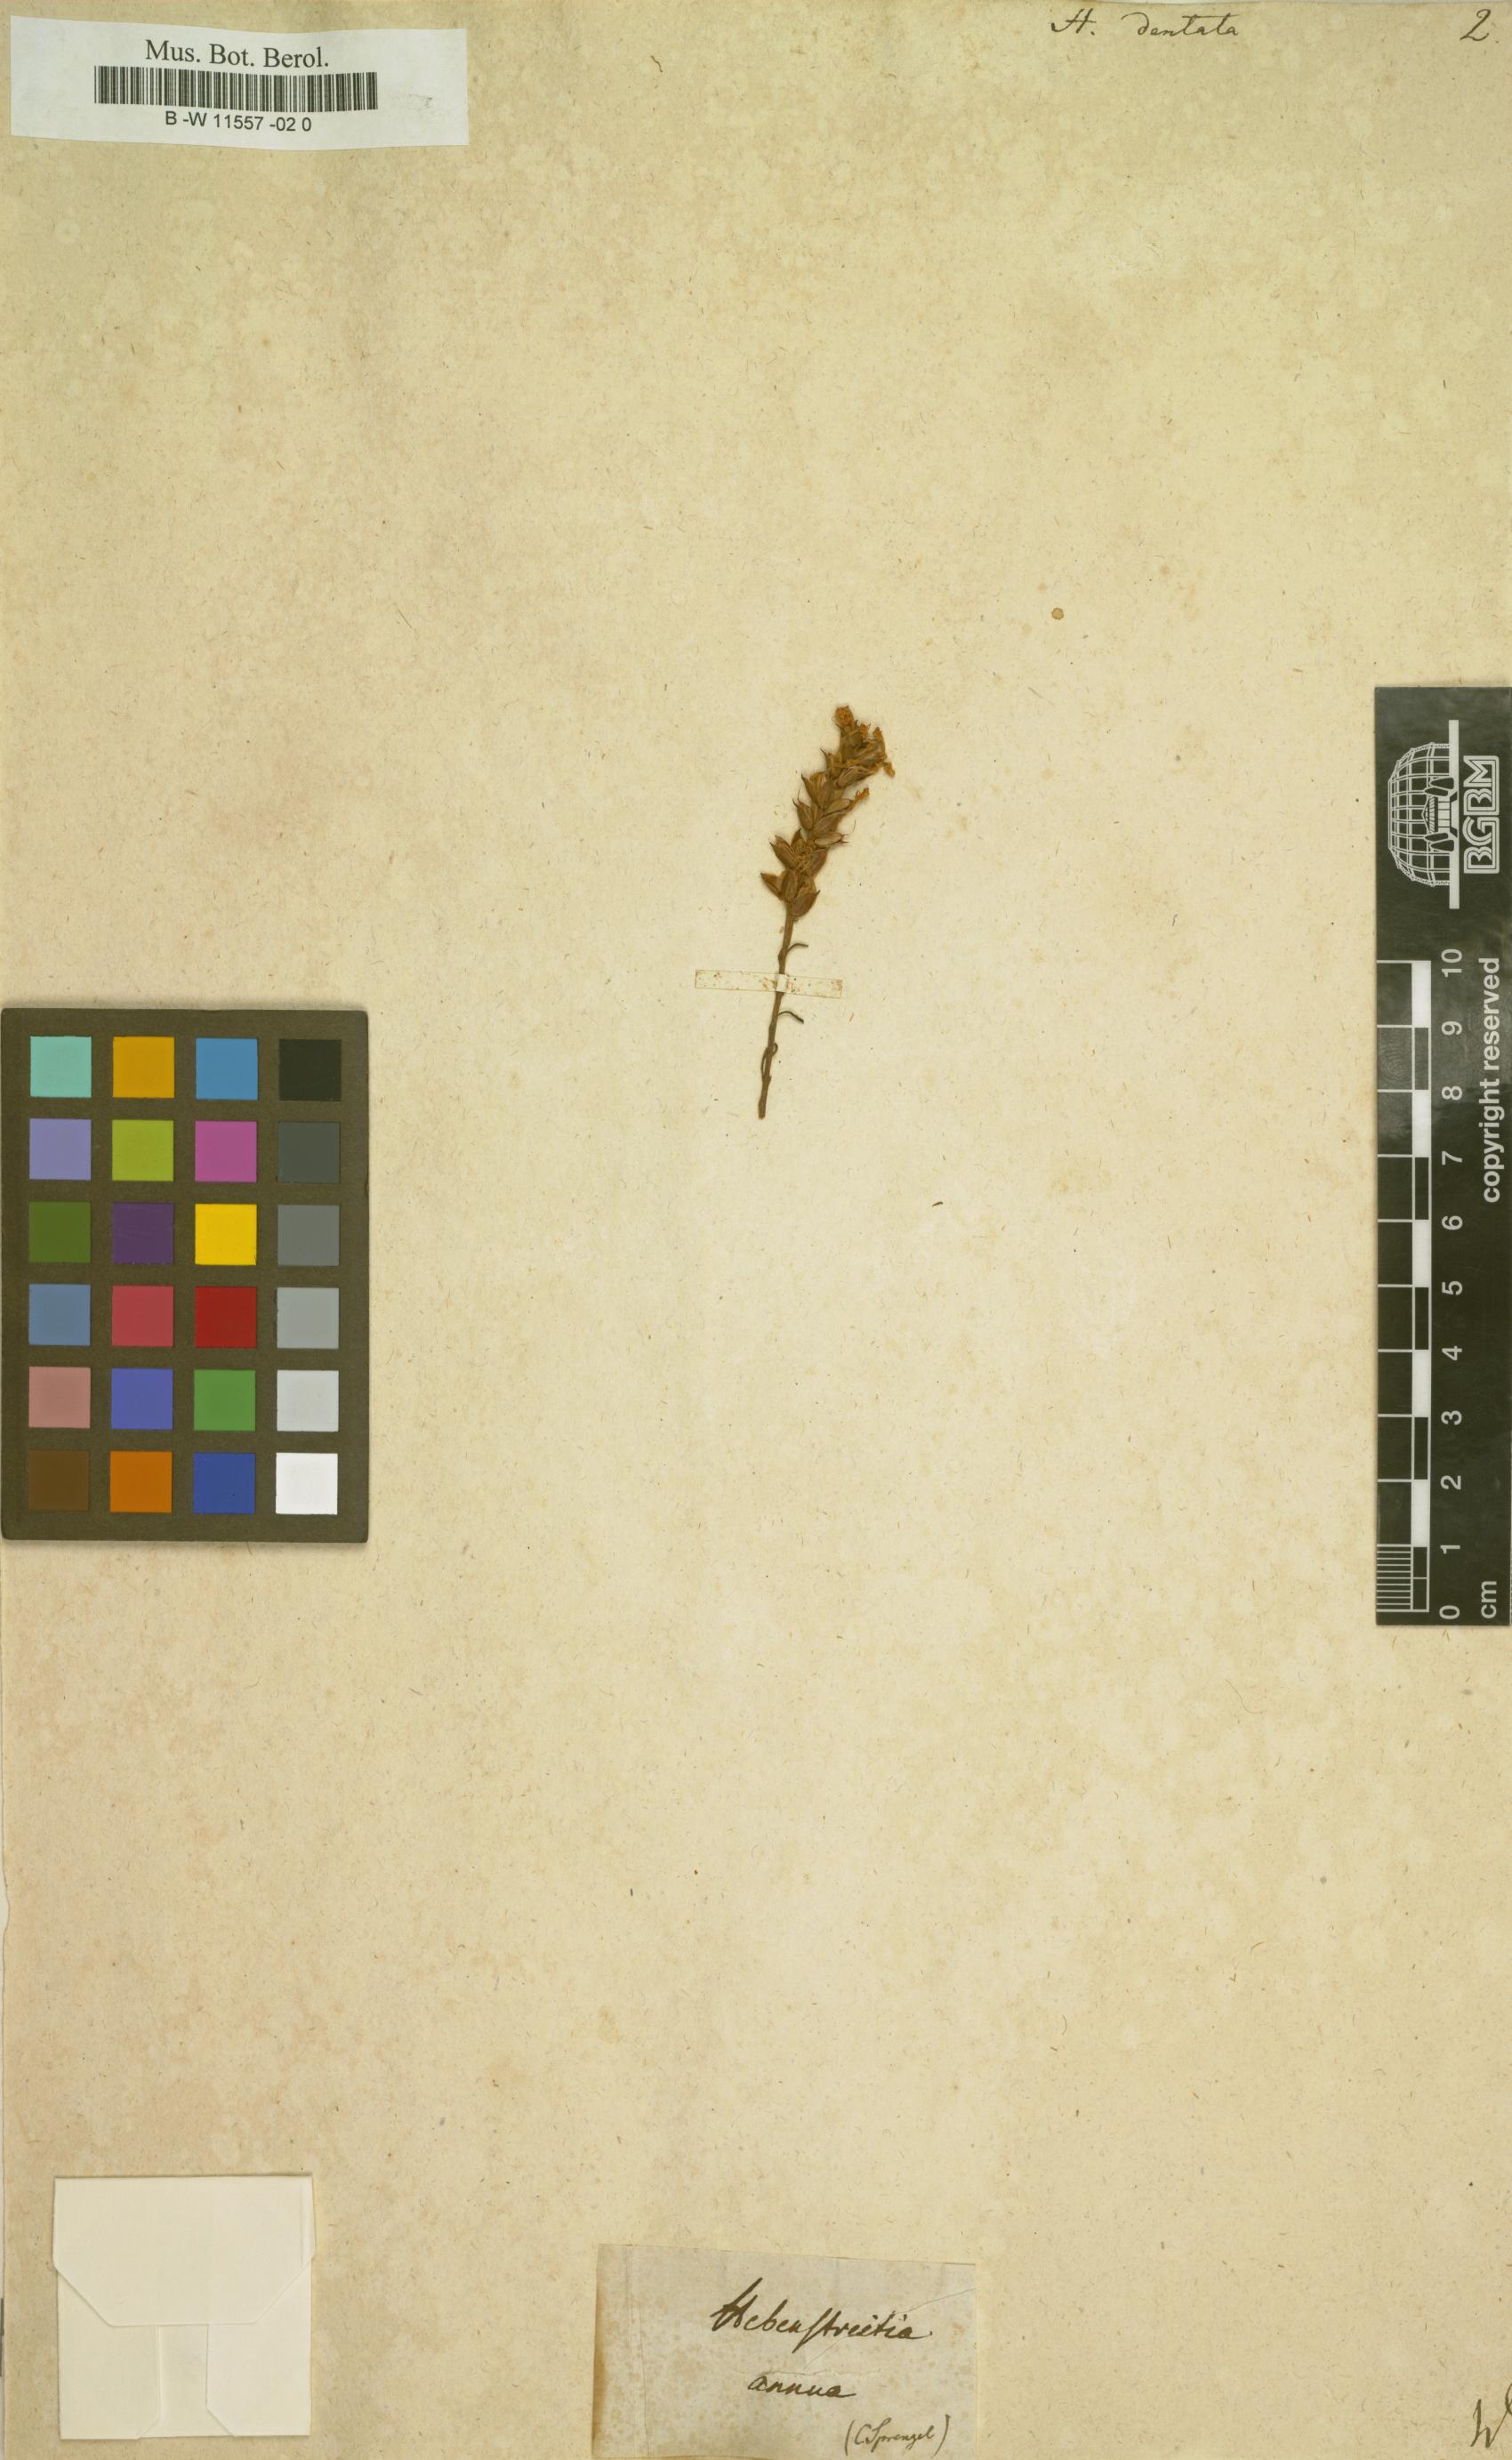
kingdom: Plantae
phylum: Tracheophyta
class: Magnoliopsida
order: Lamiales
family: Scrophulariaceae
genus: Hebenstretia
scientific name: Hebenstretia dentata
